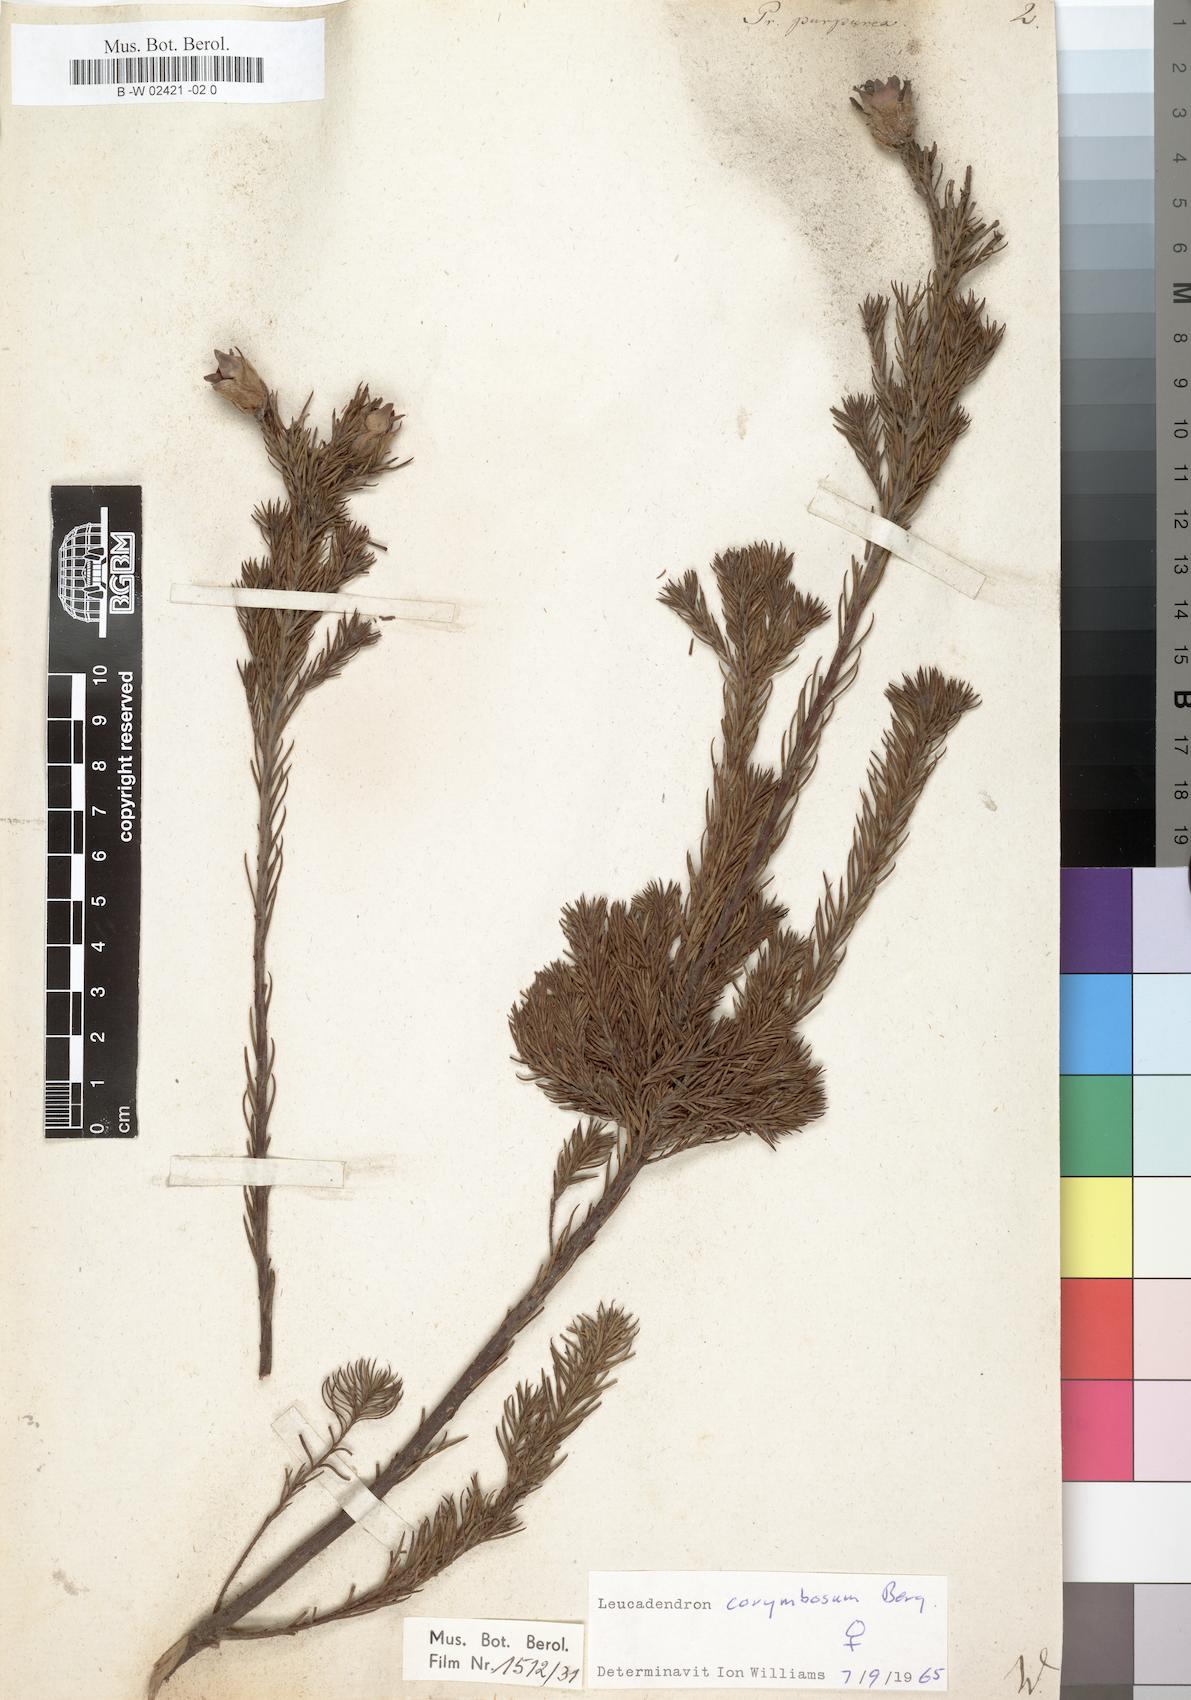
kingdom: Plantae
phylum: Tracheophyta
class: Magnoliopsida
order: Proteales
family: Proteaceae
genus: Diastella
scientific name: Diastella proteoides
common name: Flats silkypuff
